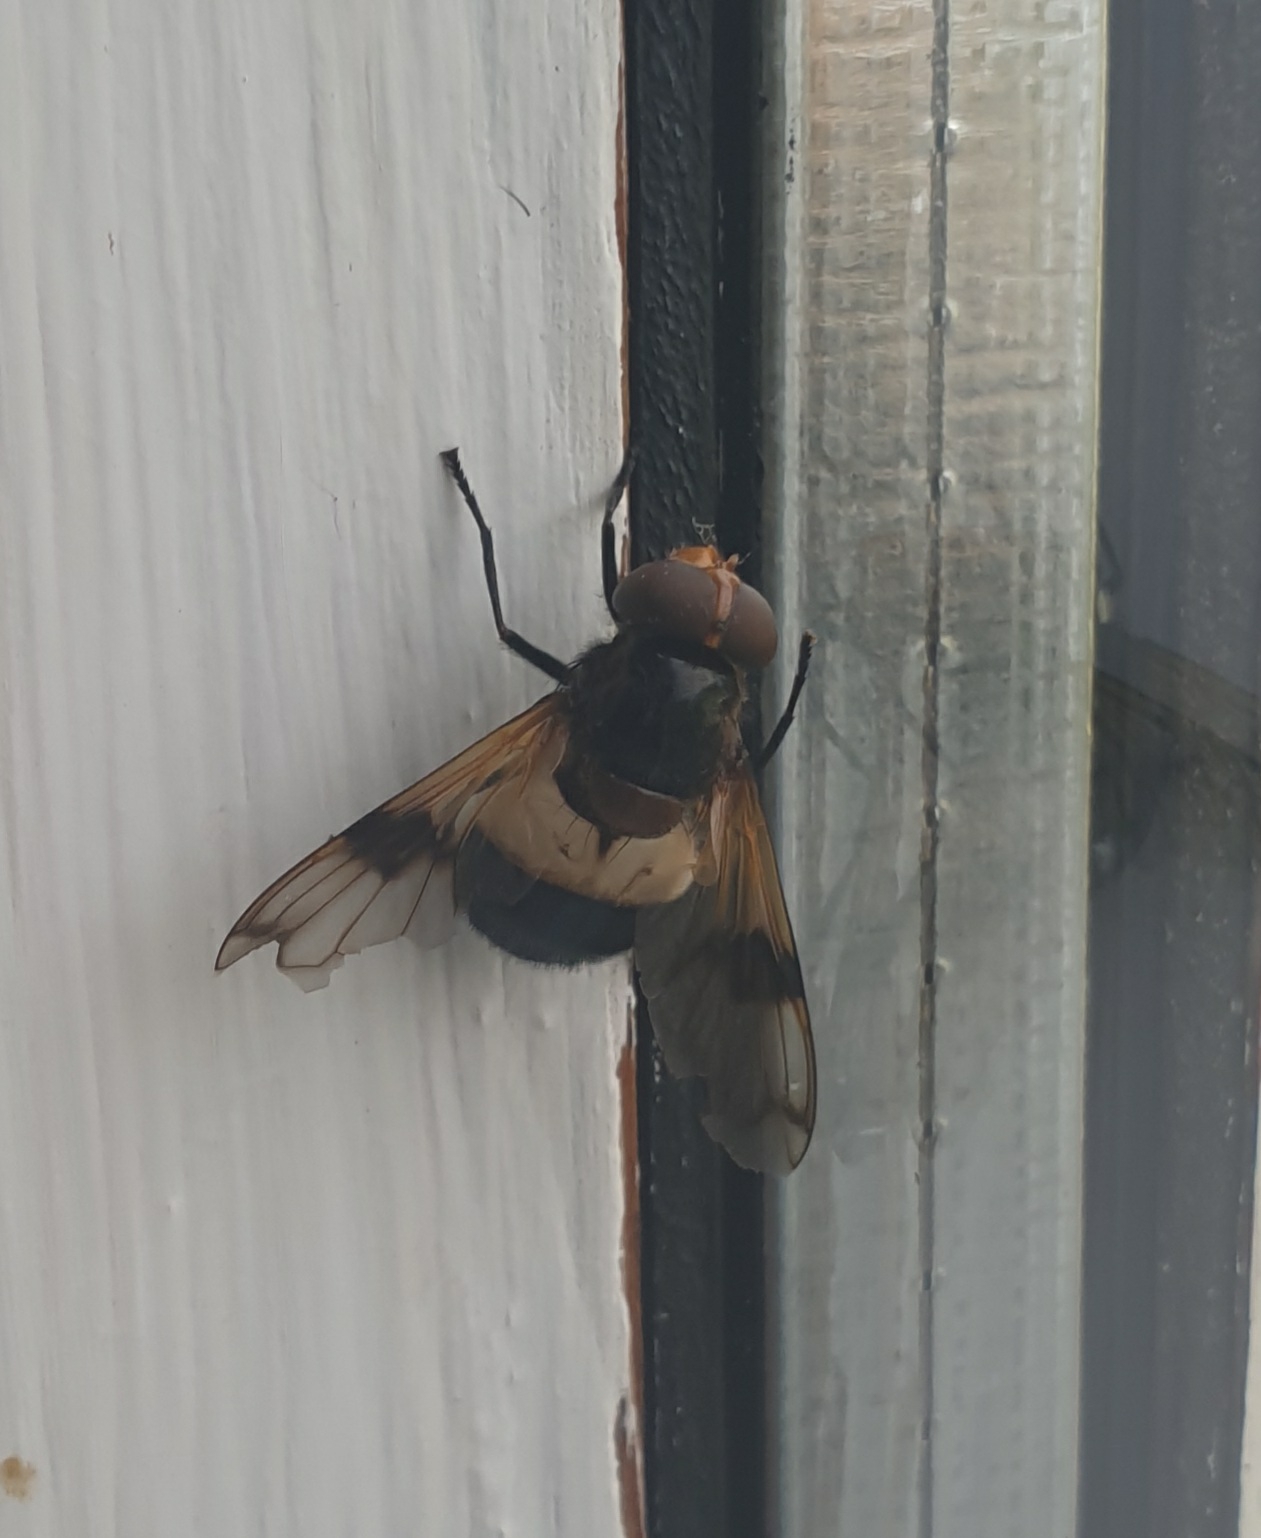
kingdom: Animalia
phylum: Arthropoda
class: Insecta
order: Diptera
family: Syrphidae
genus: Volucella
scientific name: Volucella pellucens
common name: Hvidbåndet humlesvirreflue
